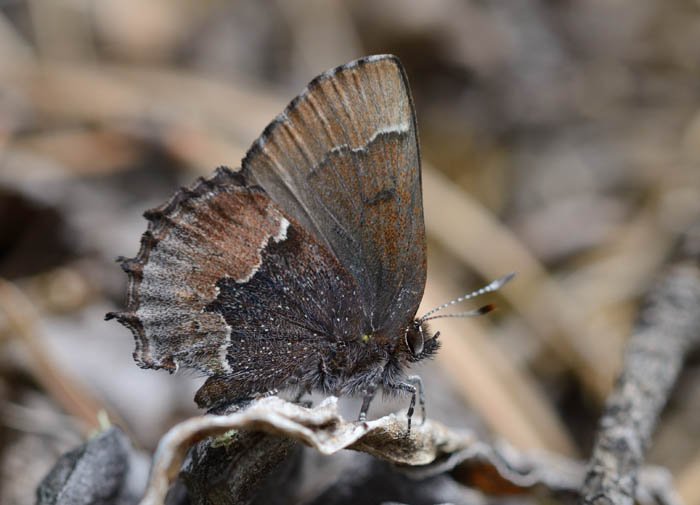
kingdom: Animalia
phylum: Arthropoda
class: Insecta
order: Lepidoptera
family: Lycaenidae
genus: Incisalia
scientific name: Incisalia henrici
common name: Henry's Elfin
